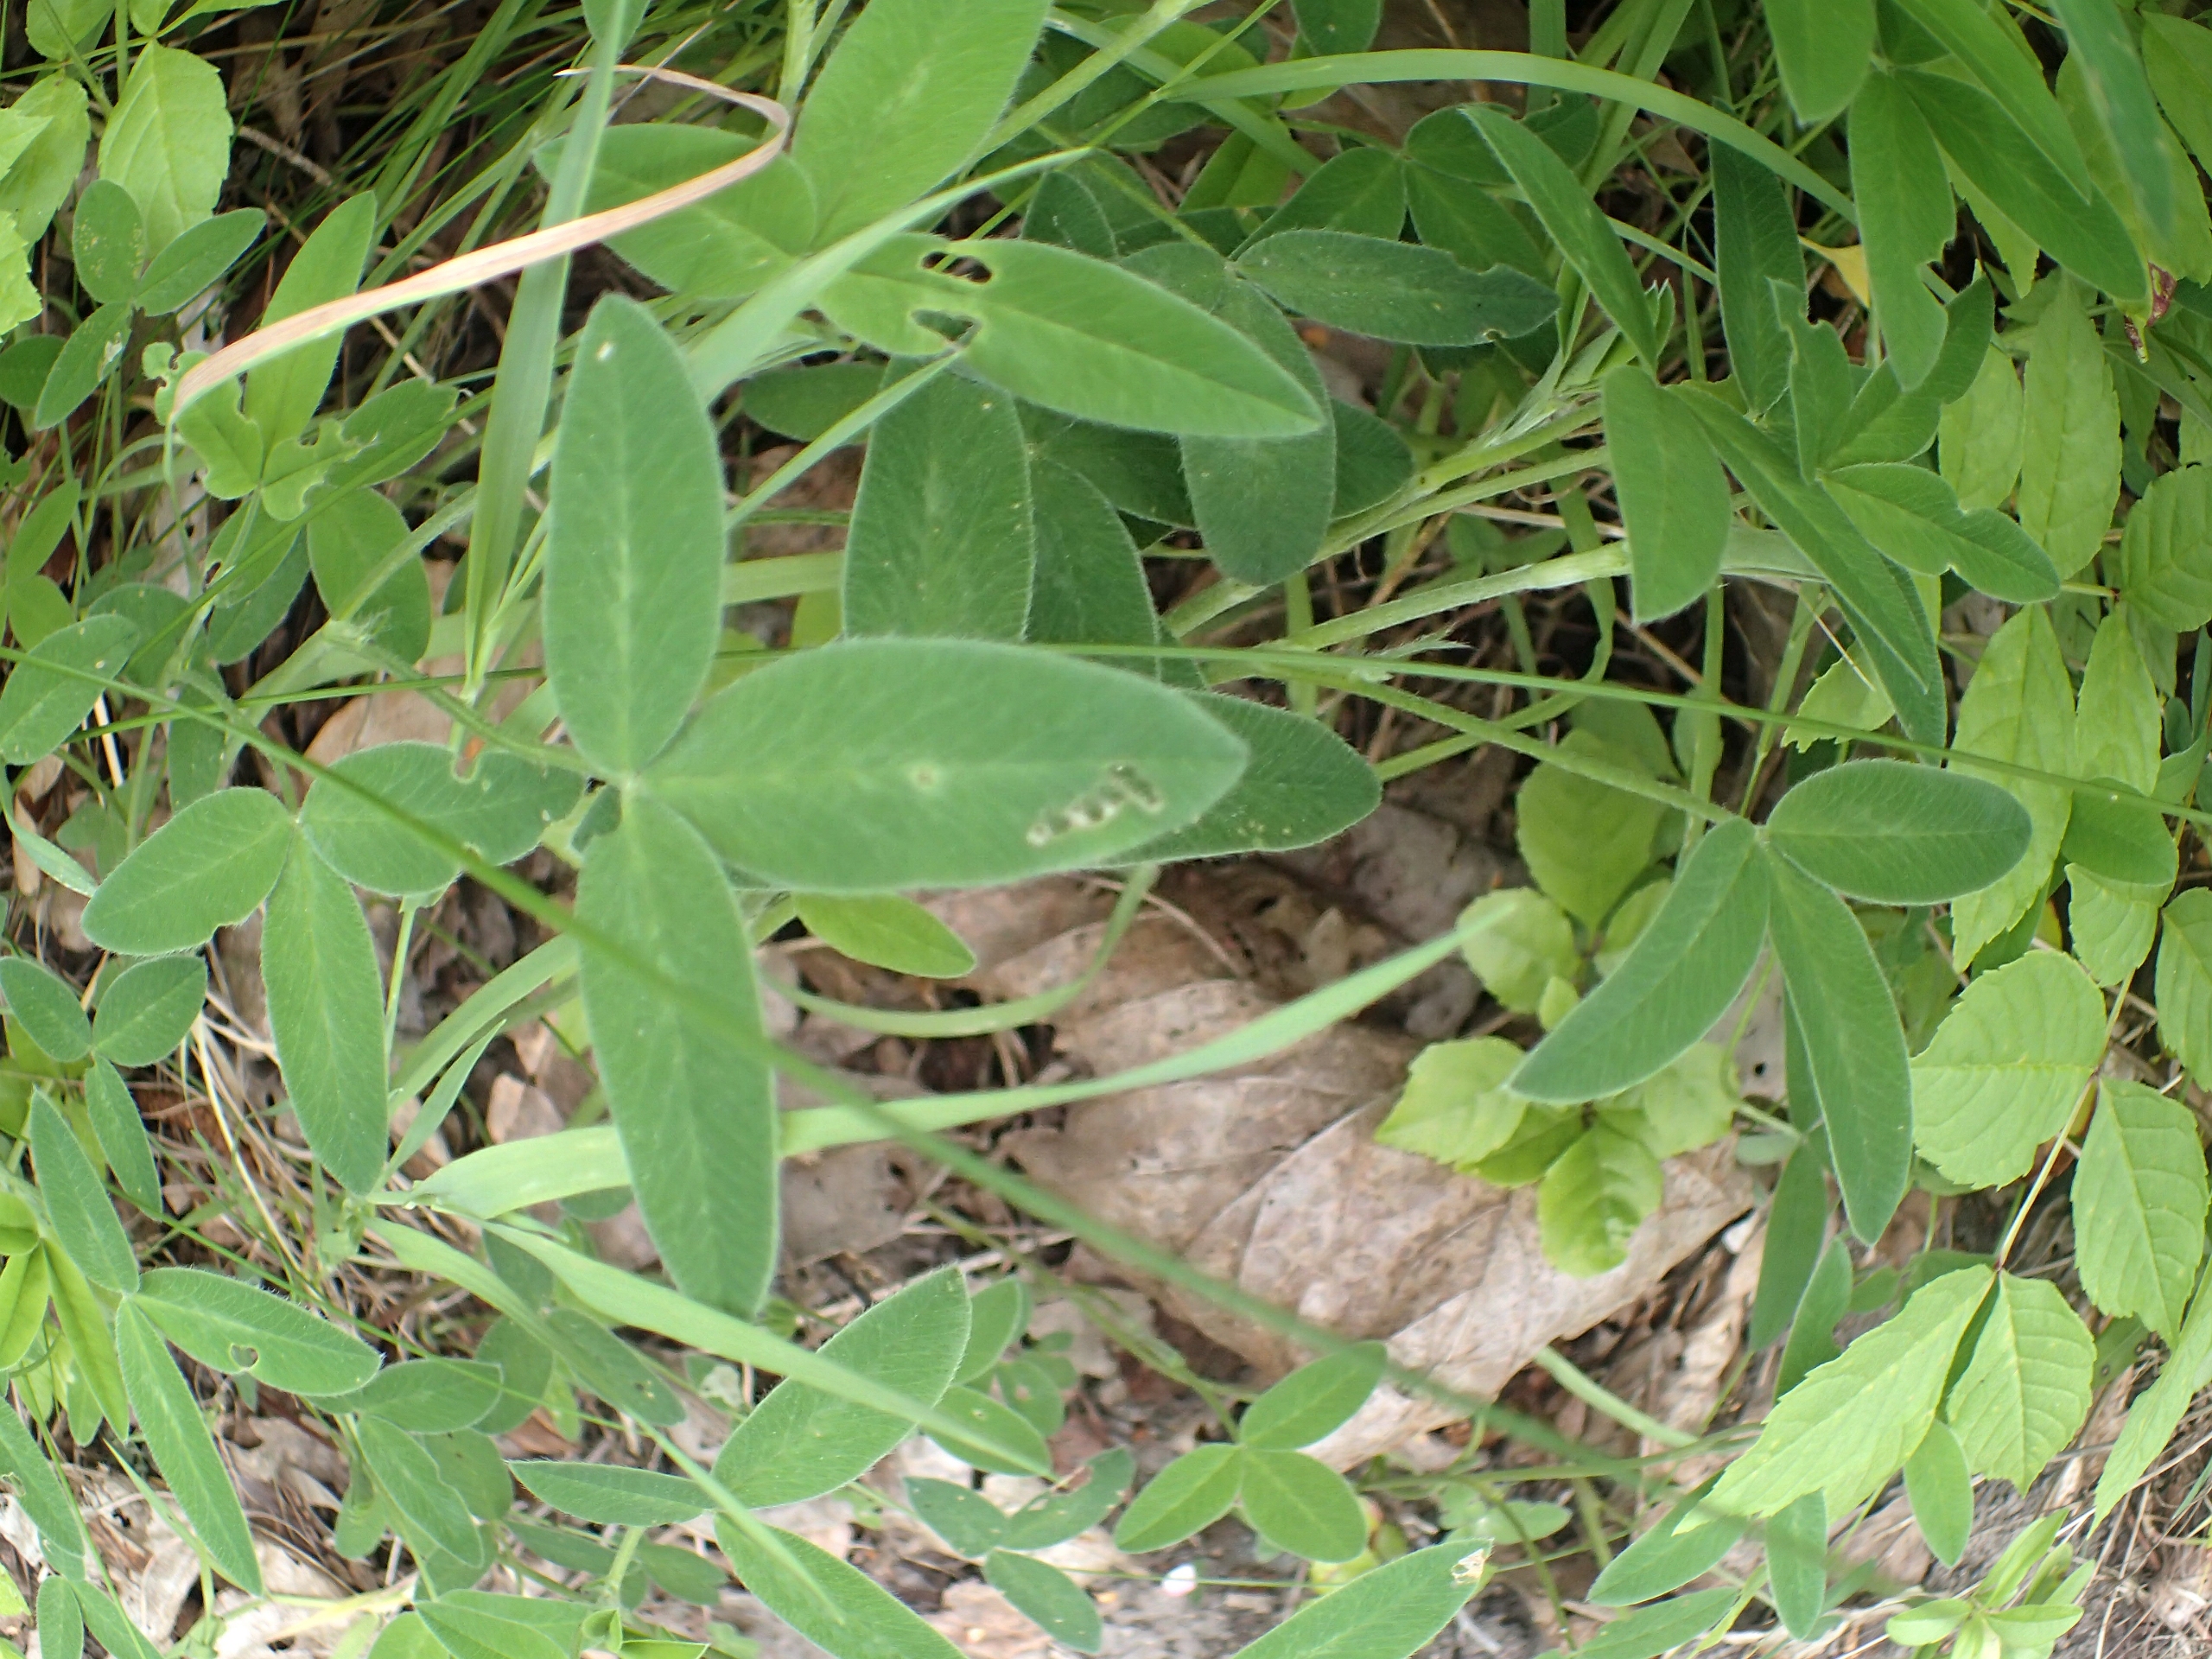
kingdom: Plantae
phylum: Tracheophyta
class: Magnoliopsida
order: Fabales
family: Fabaceae
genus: Trifolium
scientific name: Trifolium medium
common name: Bugtet kløver
